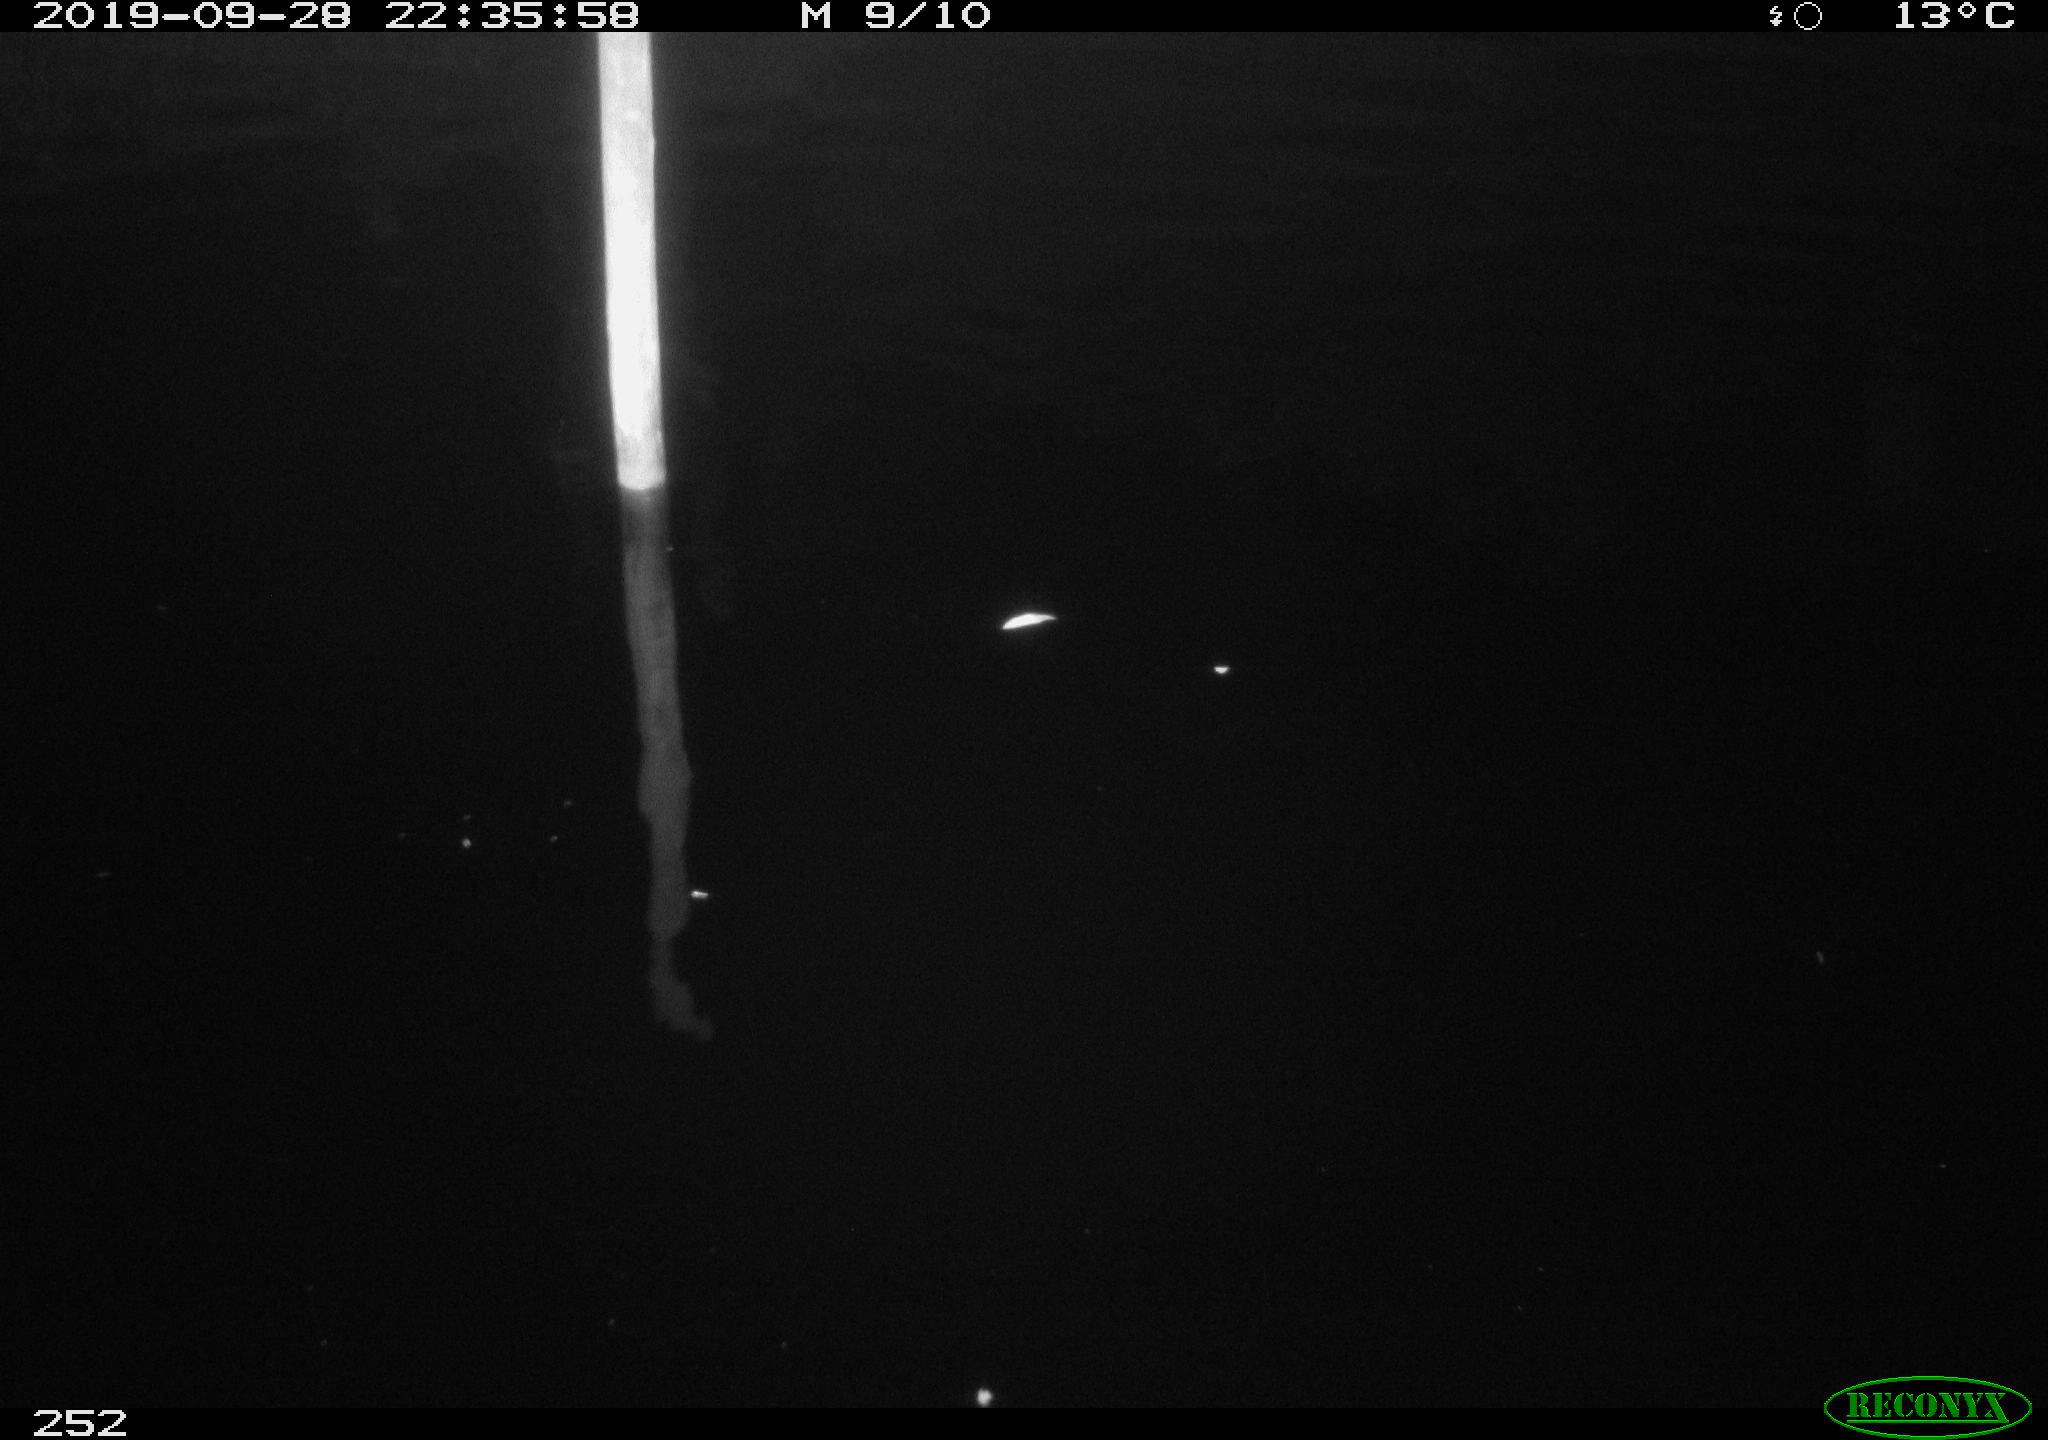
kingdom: Animalia
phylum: Chordata
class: Aves
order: Anseriformes
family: Anatidae
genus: Anas
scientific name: Anas platyrhynchos
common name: Mallard
